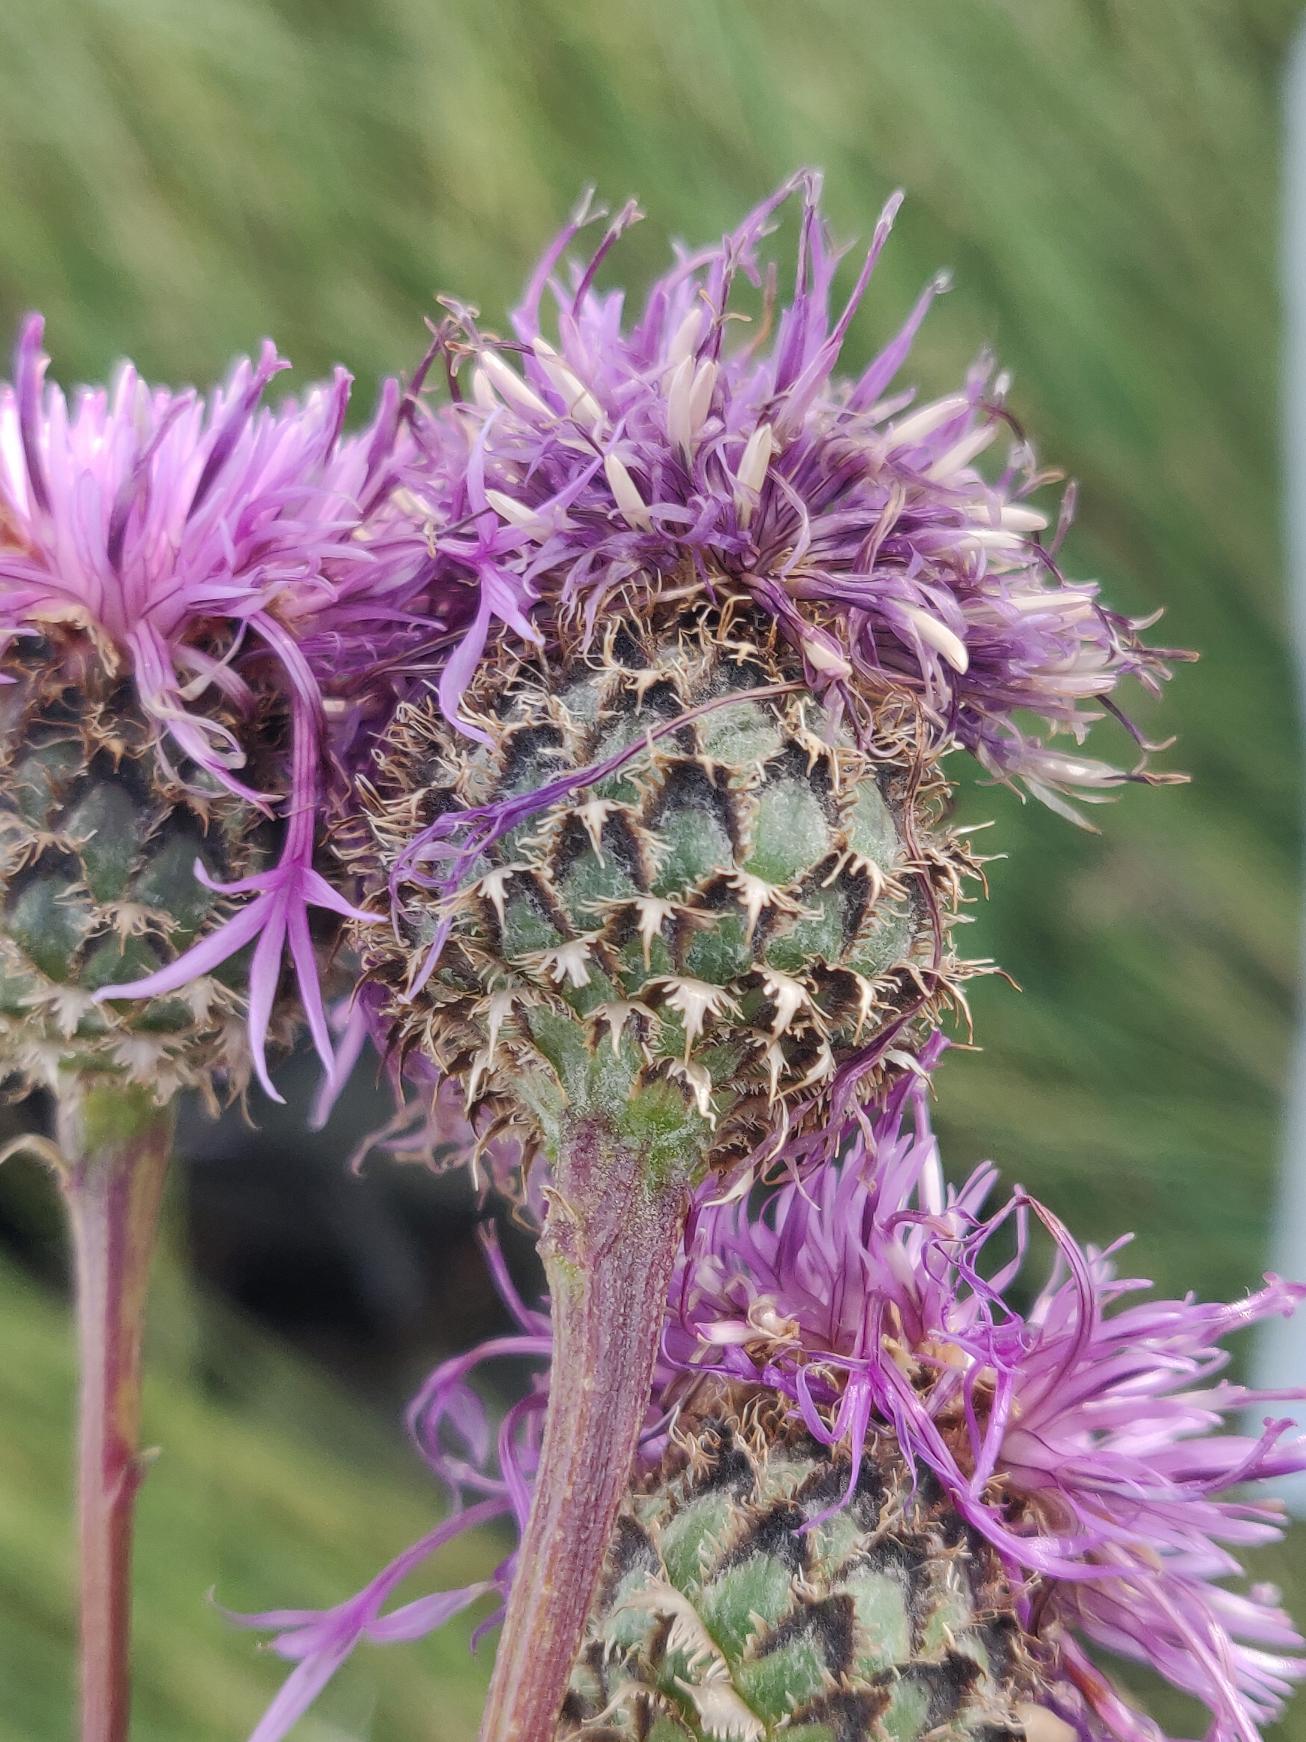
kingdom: Plantae
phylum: Tracheophyta
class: Magnoliopsida
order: Asterales
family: Asteraceae
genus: Centaurea
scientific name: Centaurea scabiosa
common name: Stor knopurt
